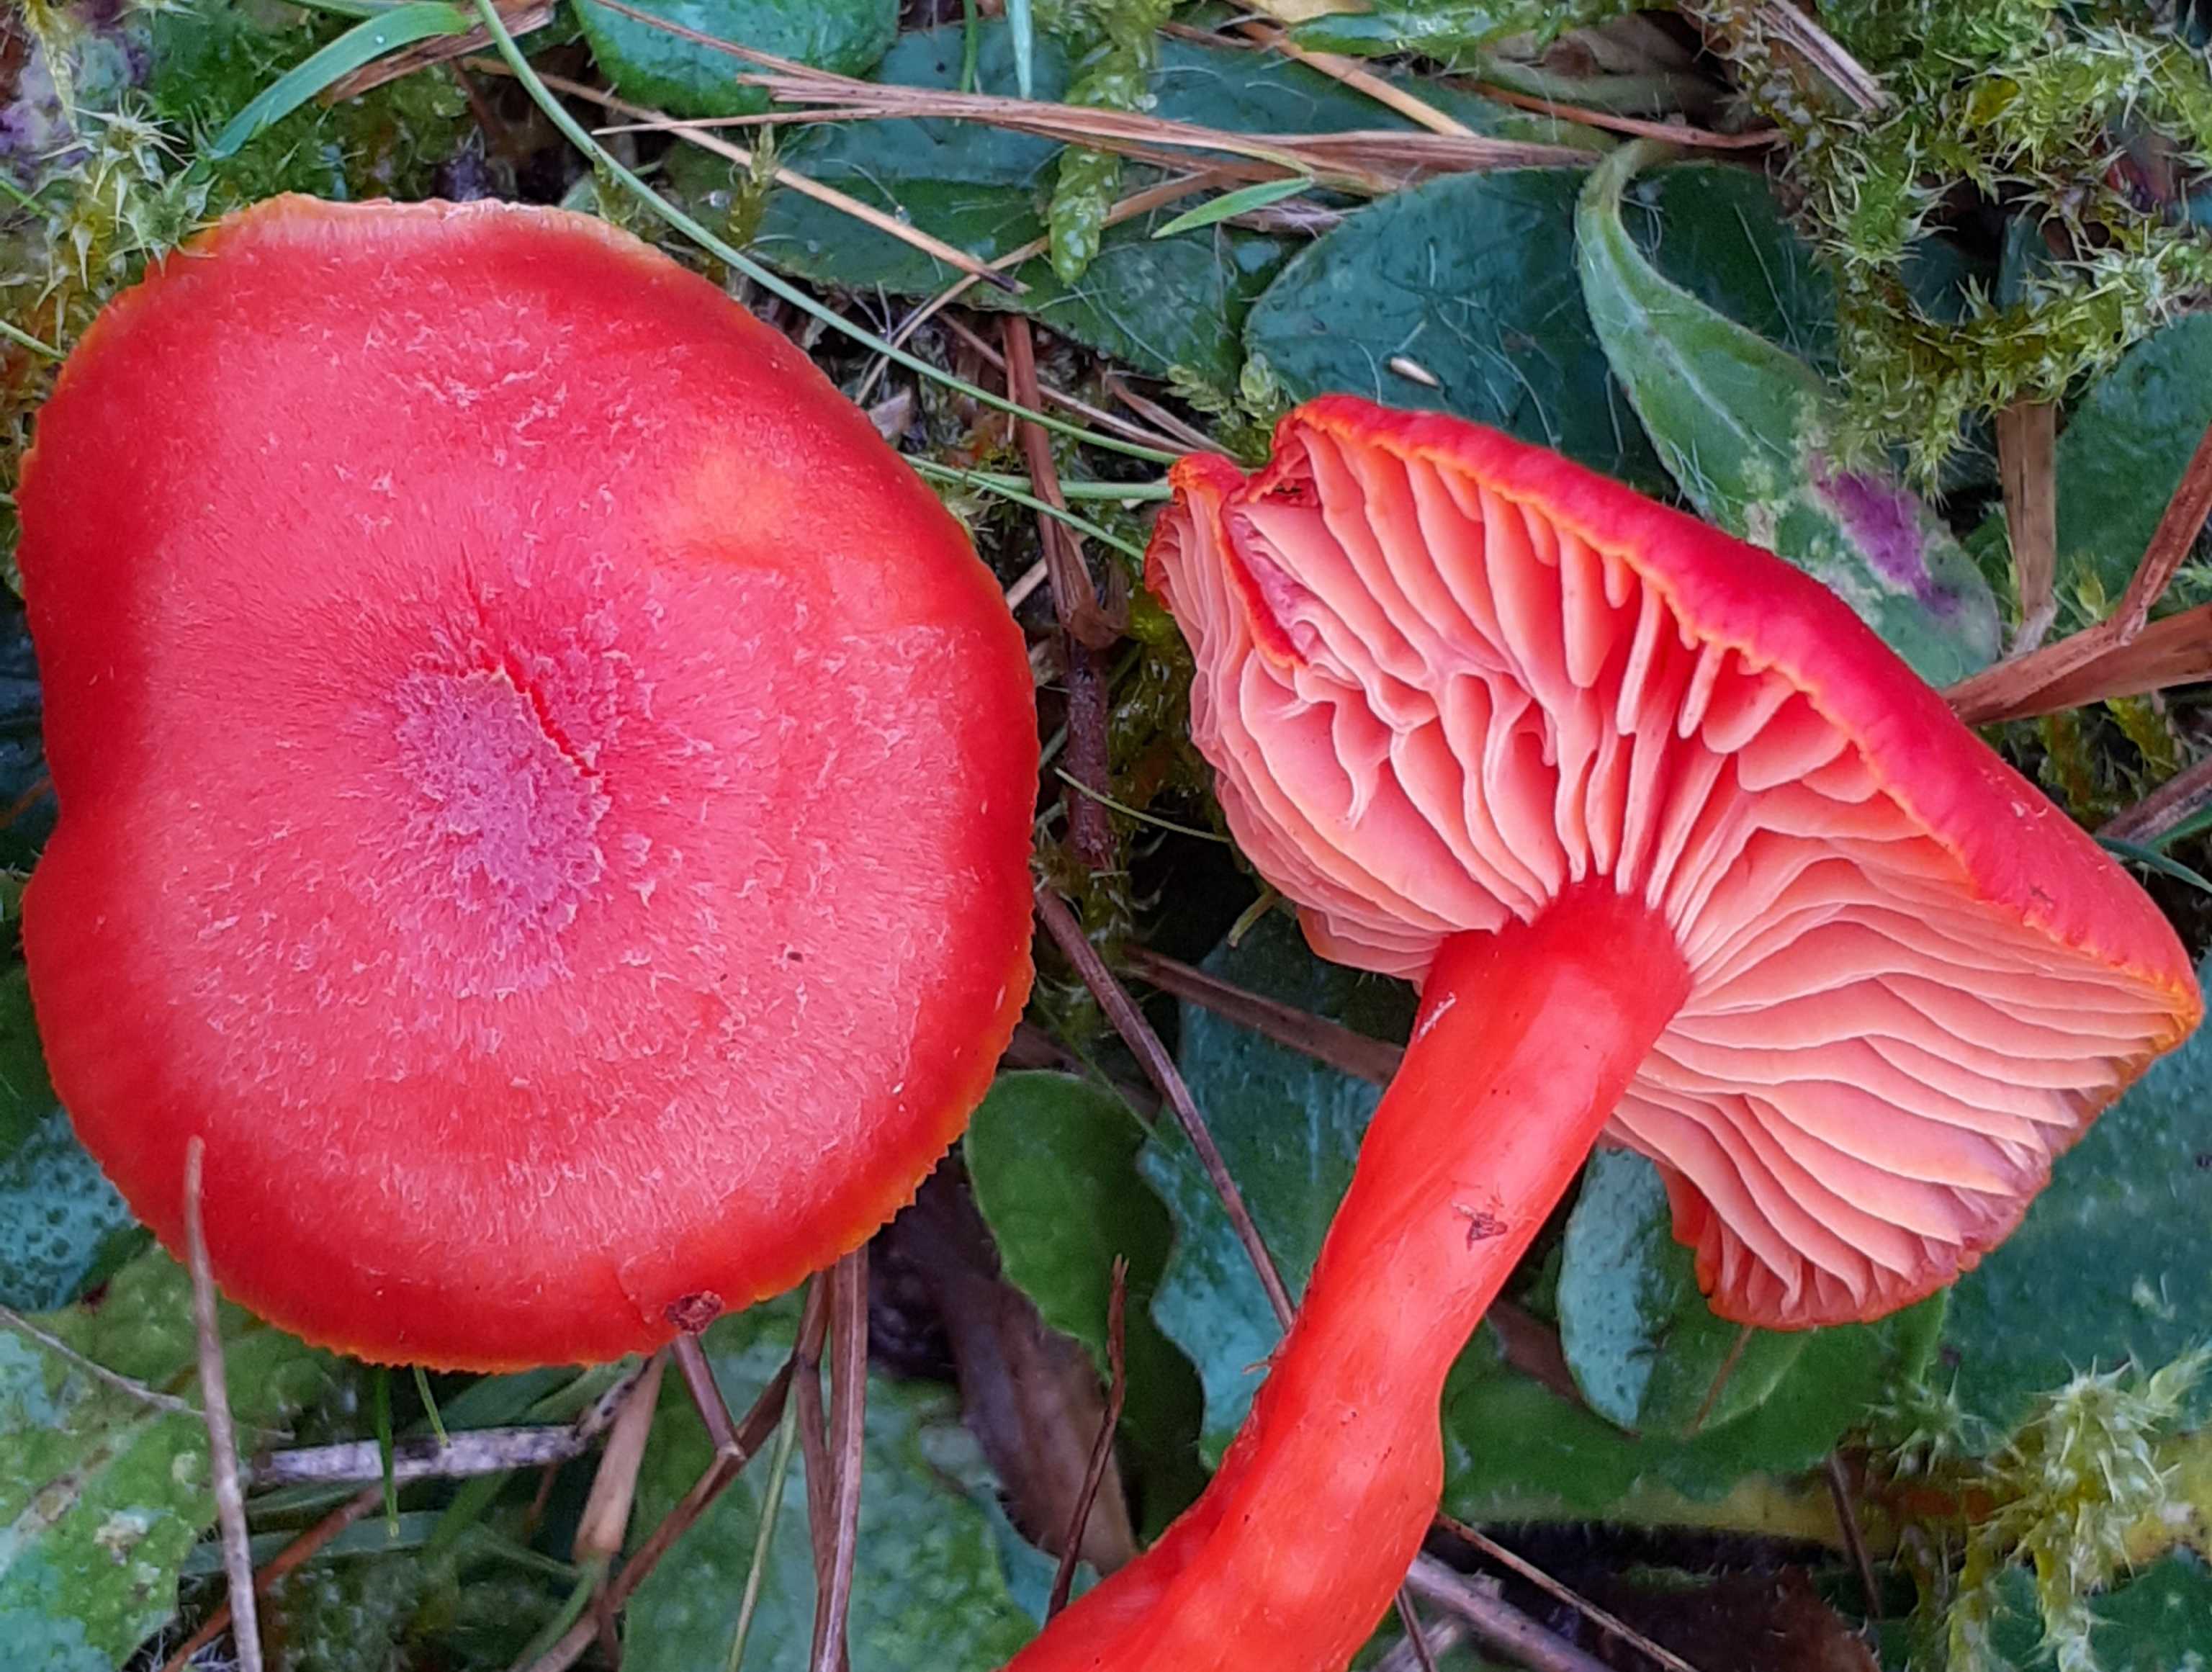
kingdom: Fungi
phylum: Basidiomycota
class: Agaricomycetes
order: Agaricales
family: Hygrophoraceae
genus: Hygrocybe
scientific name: Hygrocybe miniata
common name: mønje-vokshat
